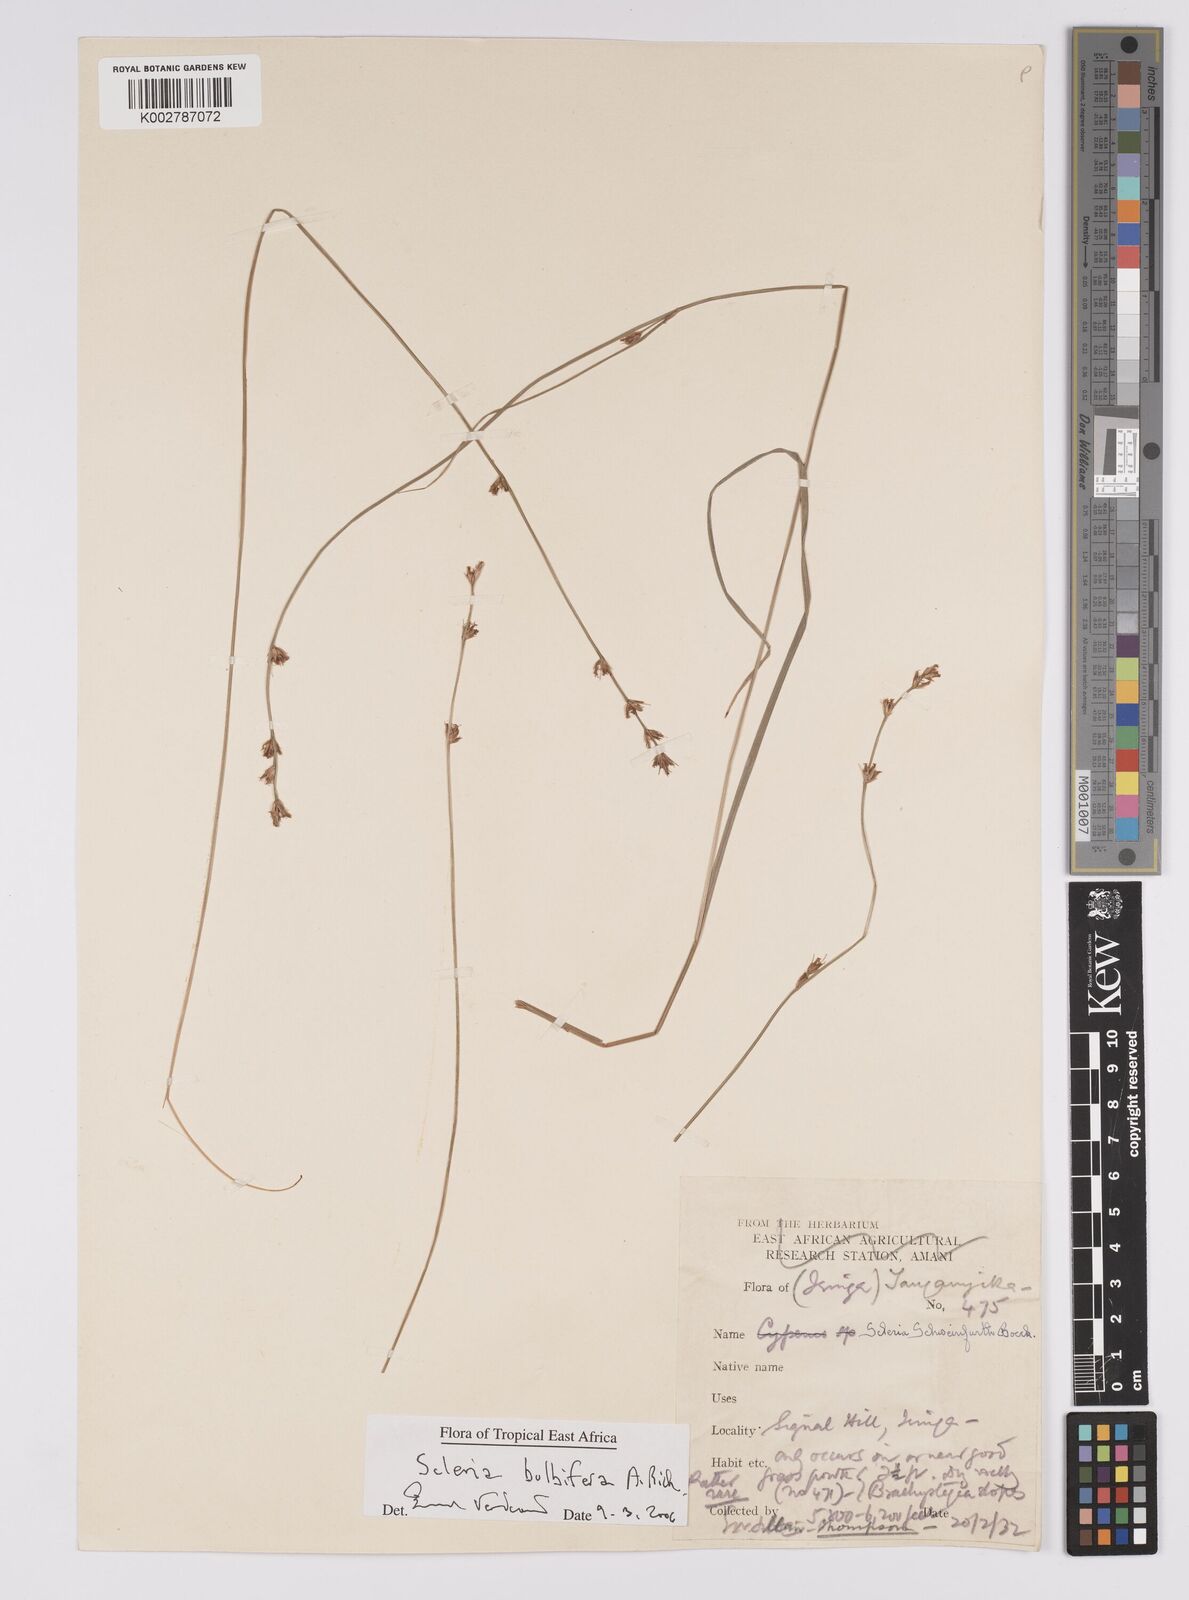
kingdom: Plantae
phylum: Tracheophyta
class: Liliopsida
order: Poales
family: Cyperaceae
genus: Scleria
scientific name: Scleria bulbifera
